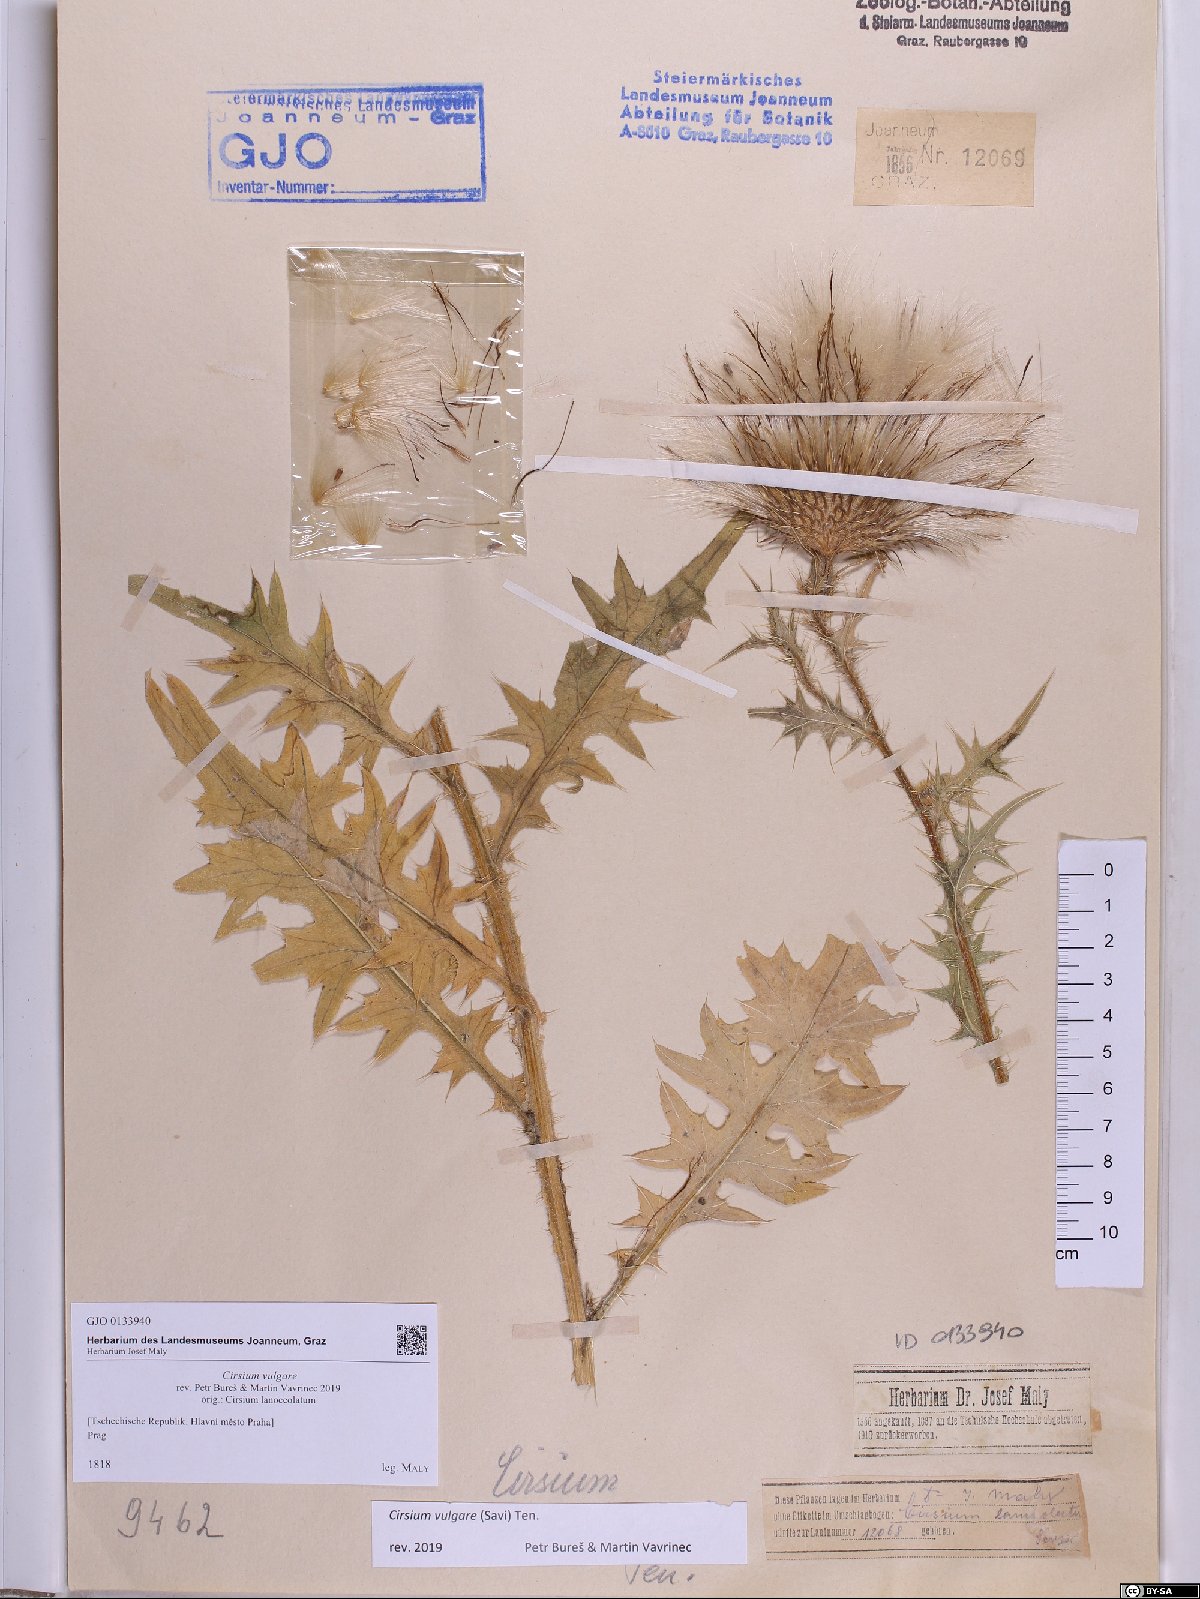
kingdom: Plantae
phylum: Tracheophyta
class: Magnoliopsida
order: Asterales
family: Asteraceae
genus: Cirsium
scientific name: Cirsium vulgare
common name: Bull thistle
